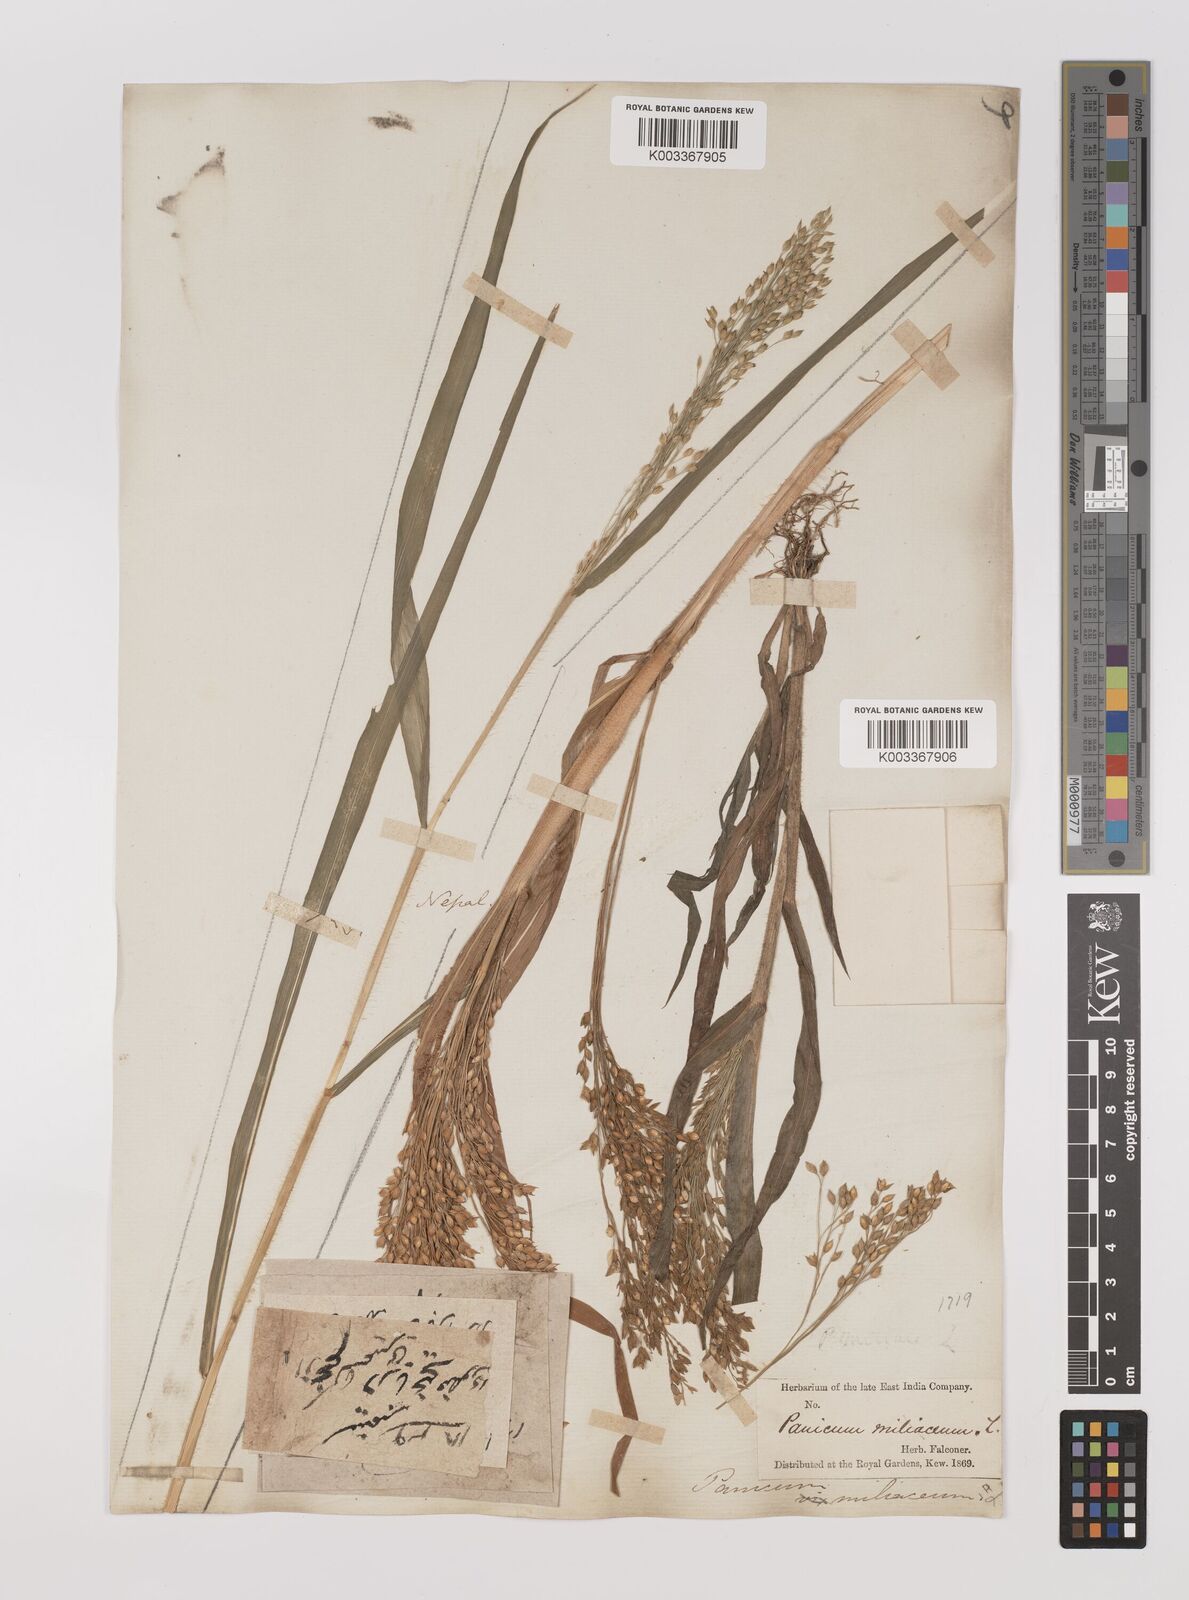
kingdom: Plantae
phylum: Tracheophyta
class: Liliopsida
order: Poales
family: Poaceae
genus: Panicum
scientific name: Panicum miliaceum
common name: Common millet
